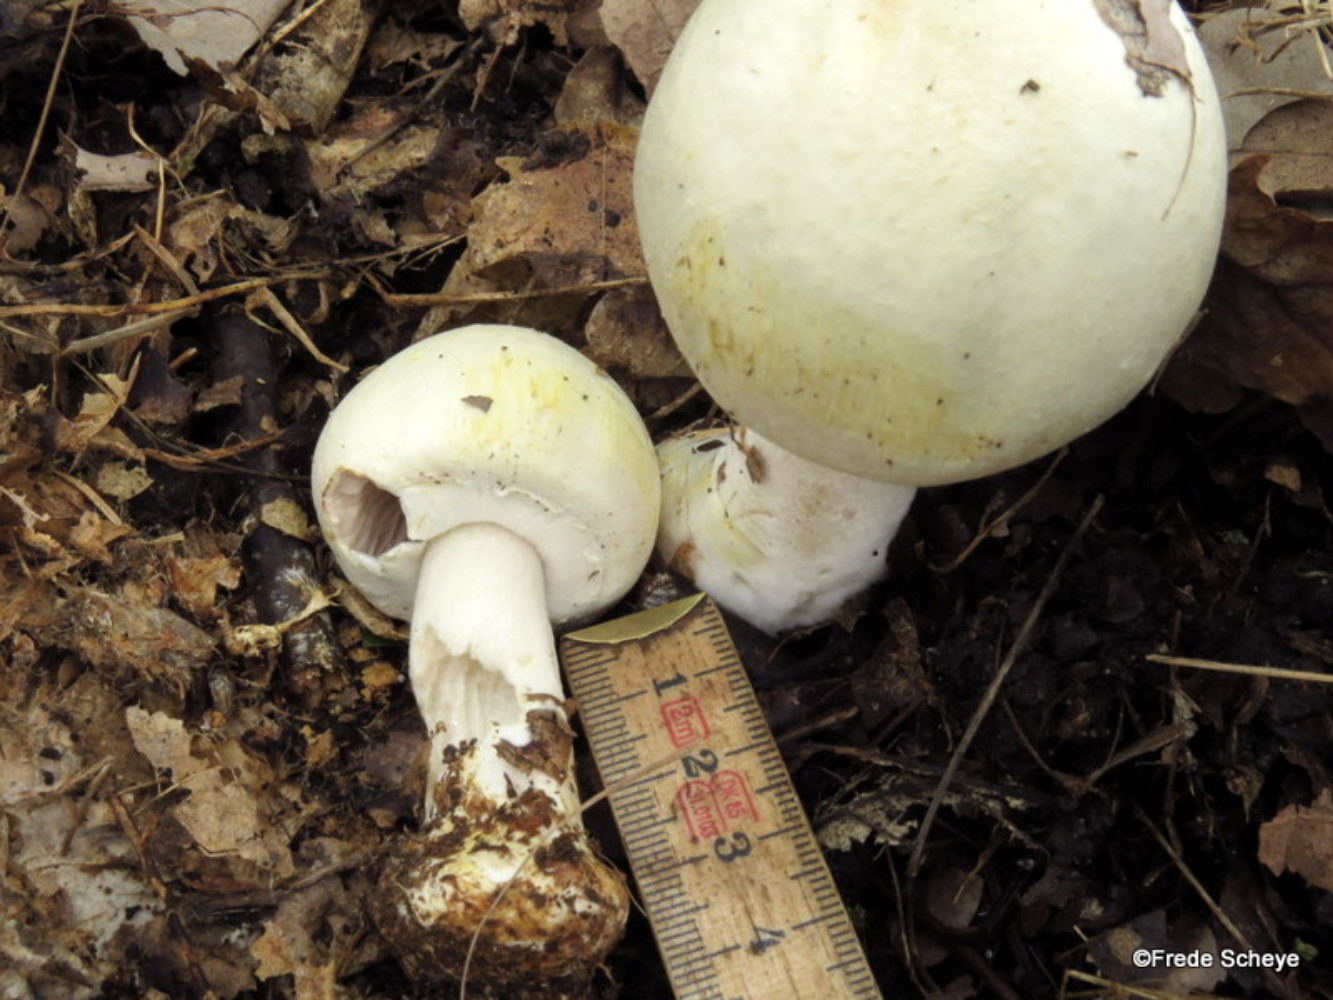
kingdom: Fungi
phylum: Basidiomycota
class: Agaricomycetes
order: Agaricales
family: Agaricaceae
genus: Agaricus
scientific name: Agaricus sylvicola
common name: skiveknoldet champignon
